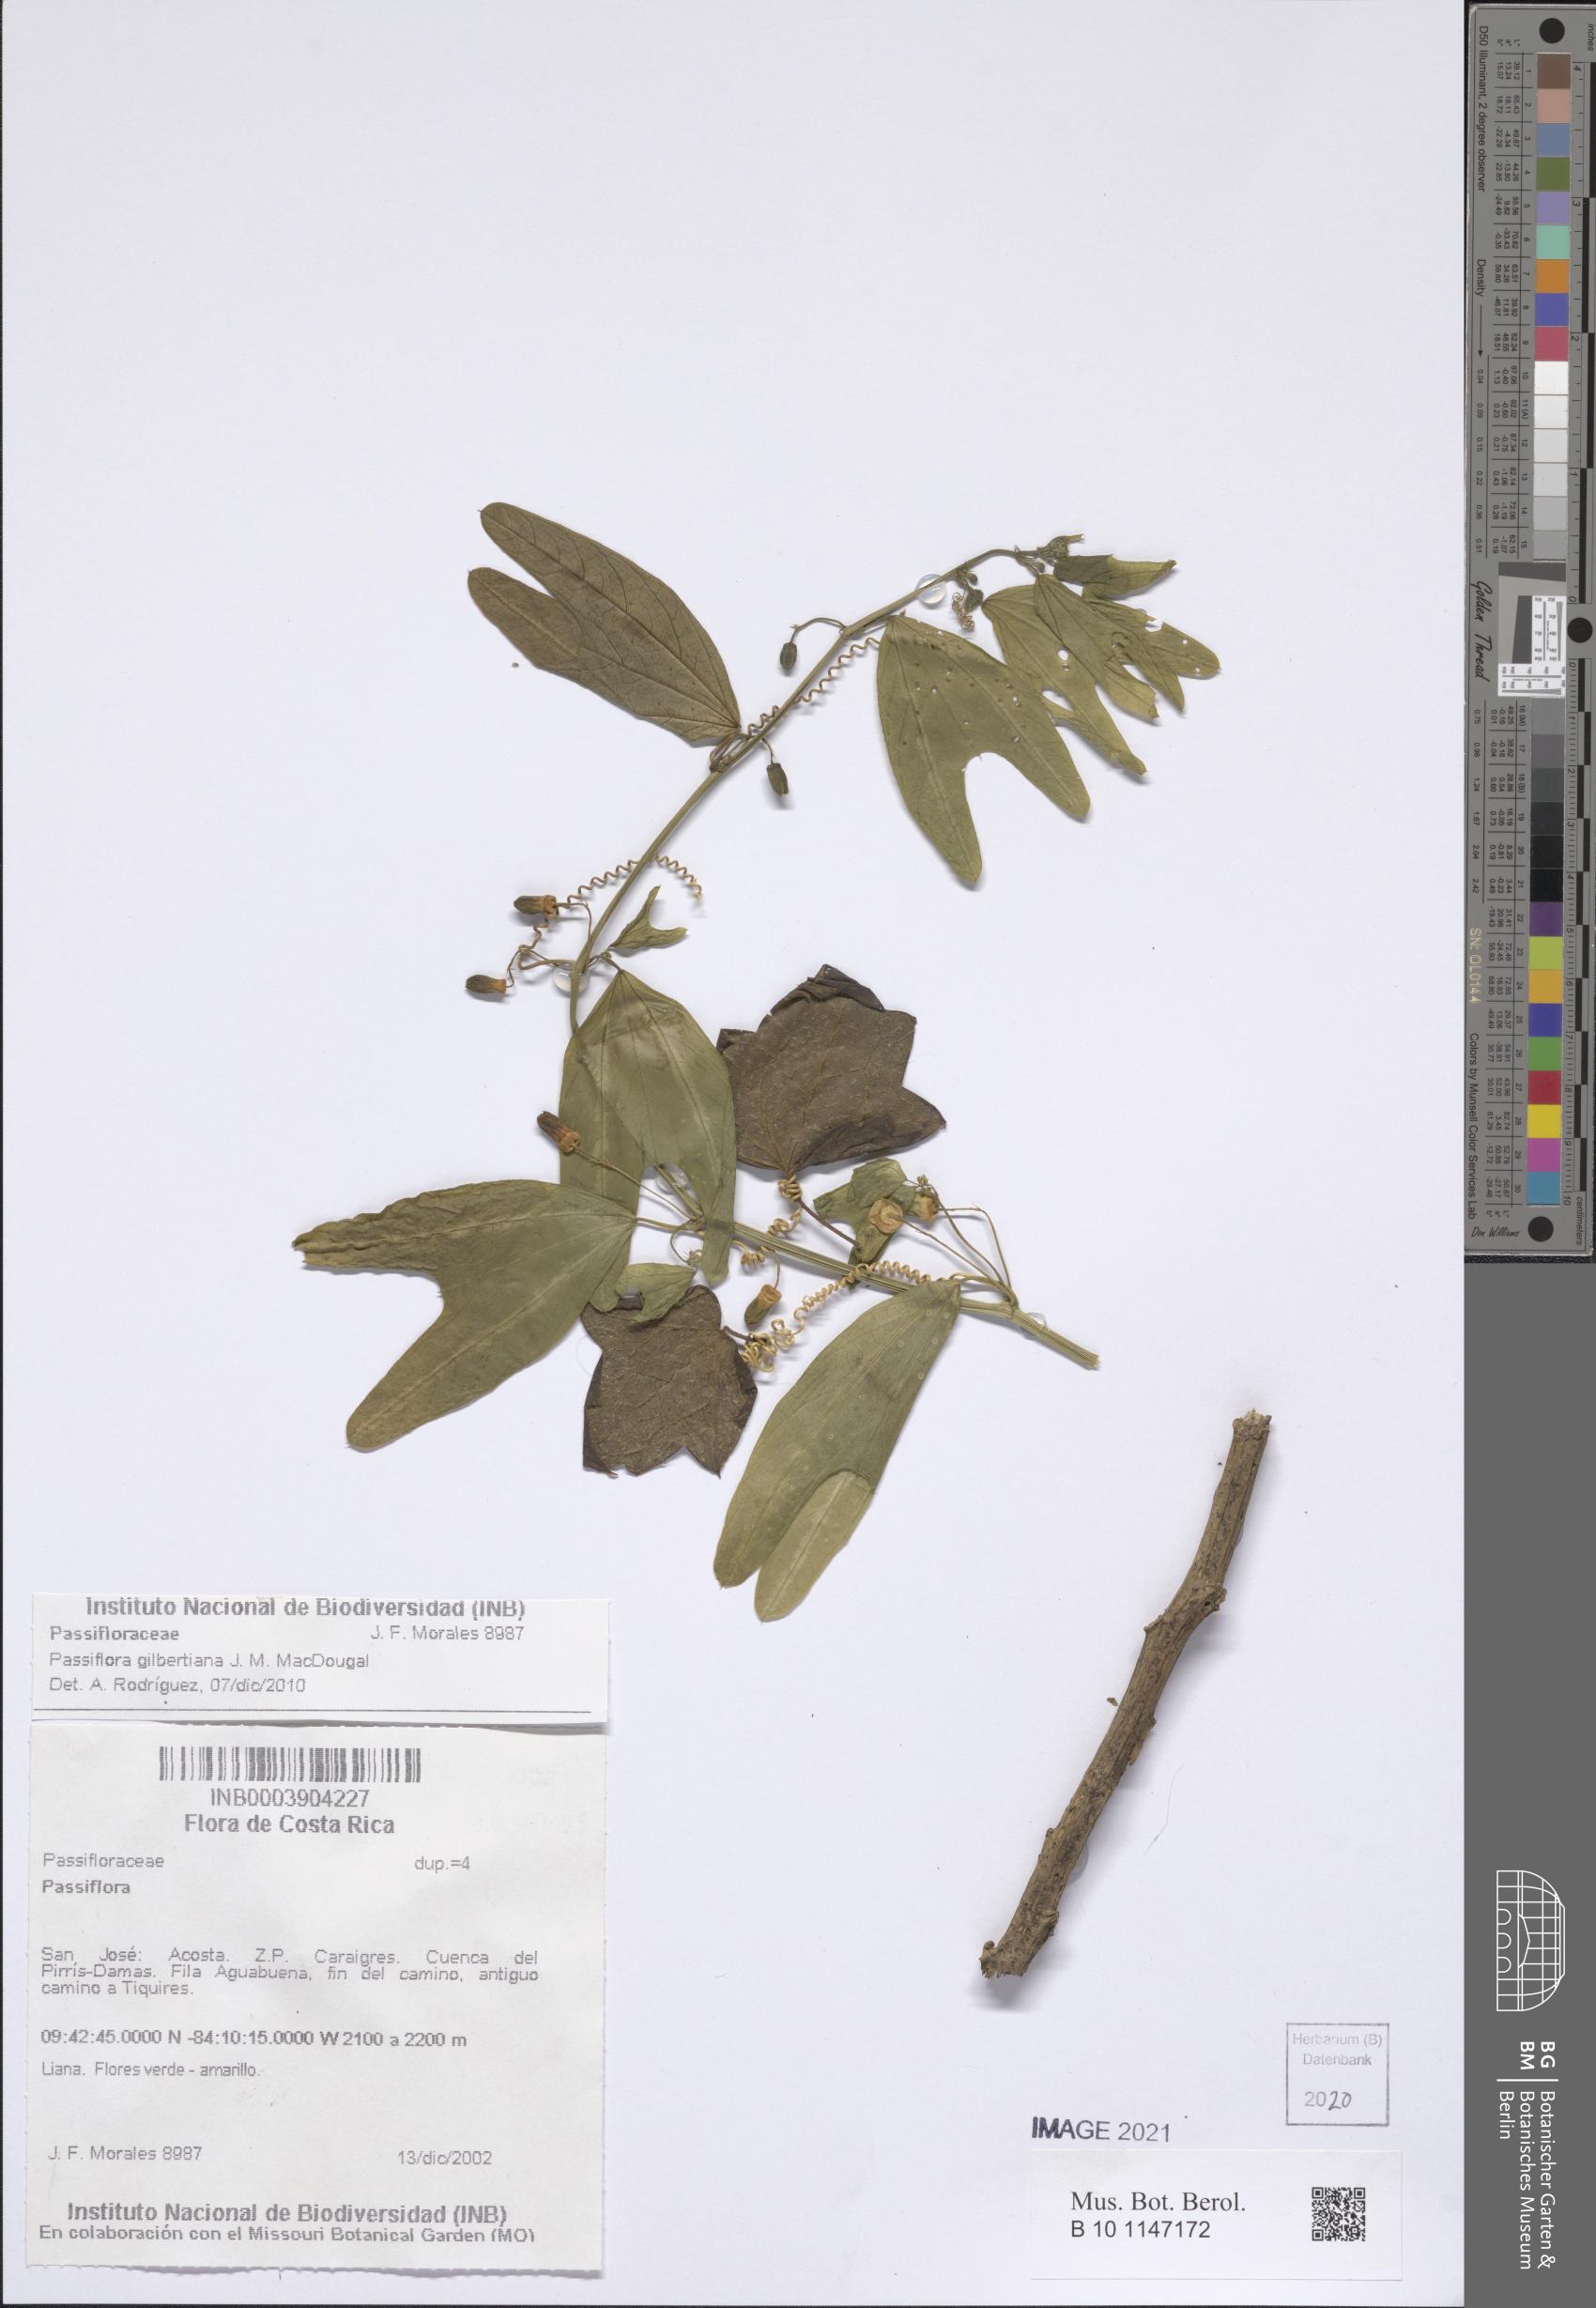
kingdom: Plantae
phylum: Tracheophyta
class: Magnoliopsida
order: Malpighiales
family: Passifloraceae
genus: Passiflora
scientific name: Passiflora gilbertiana
